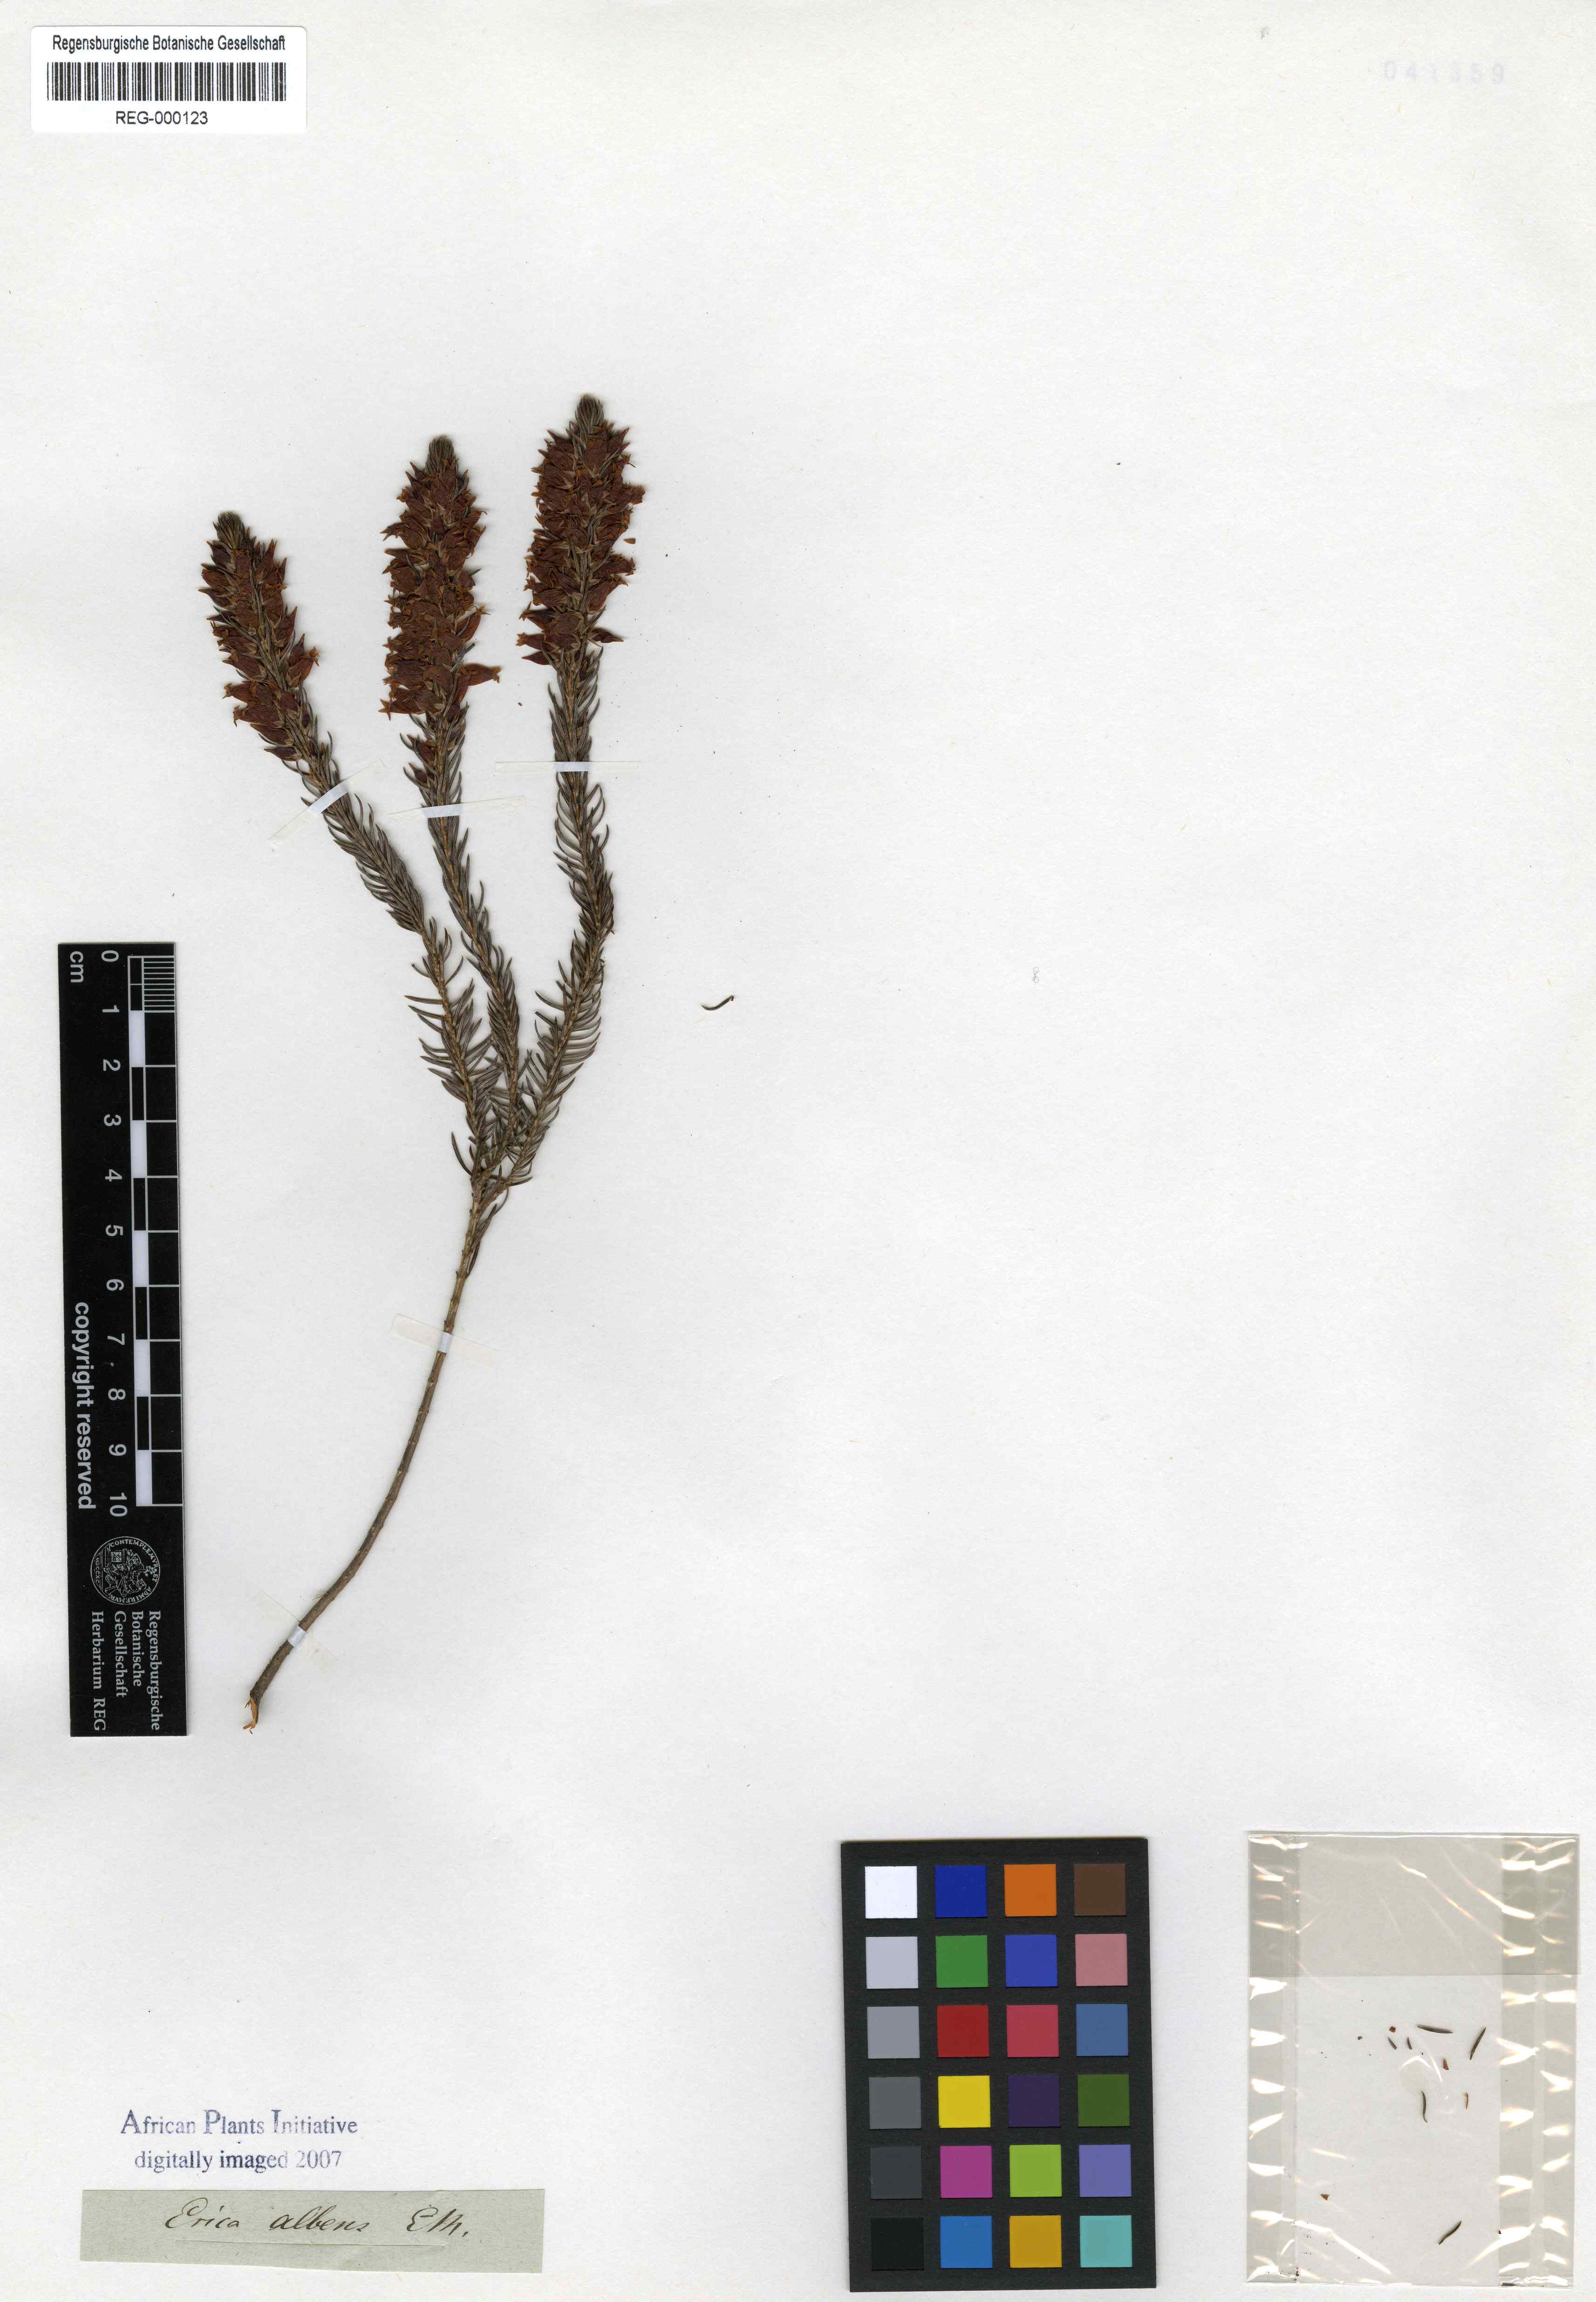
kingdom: Plantae
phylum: Tracheophyta
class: Magnoliopsida
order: Ericales
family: Ericaceae
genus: Erica
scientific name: Erica albens
